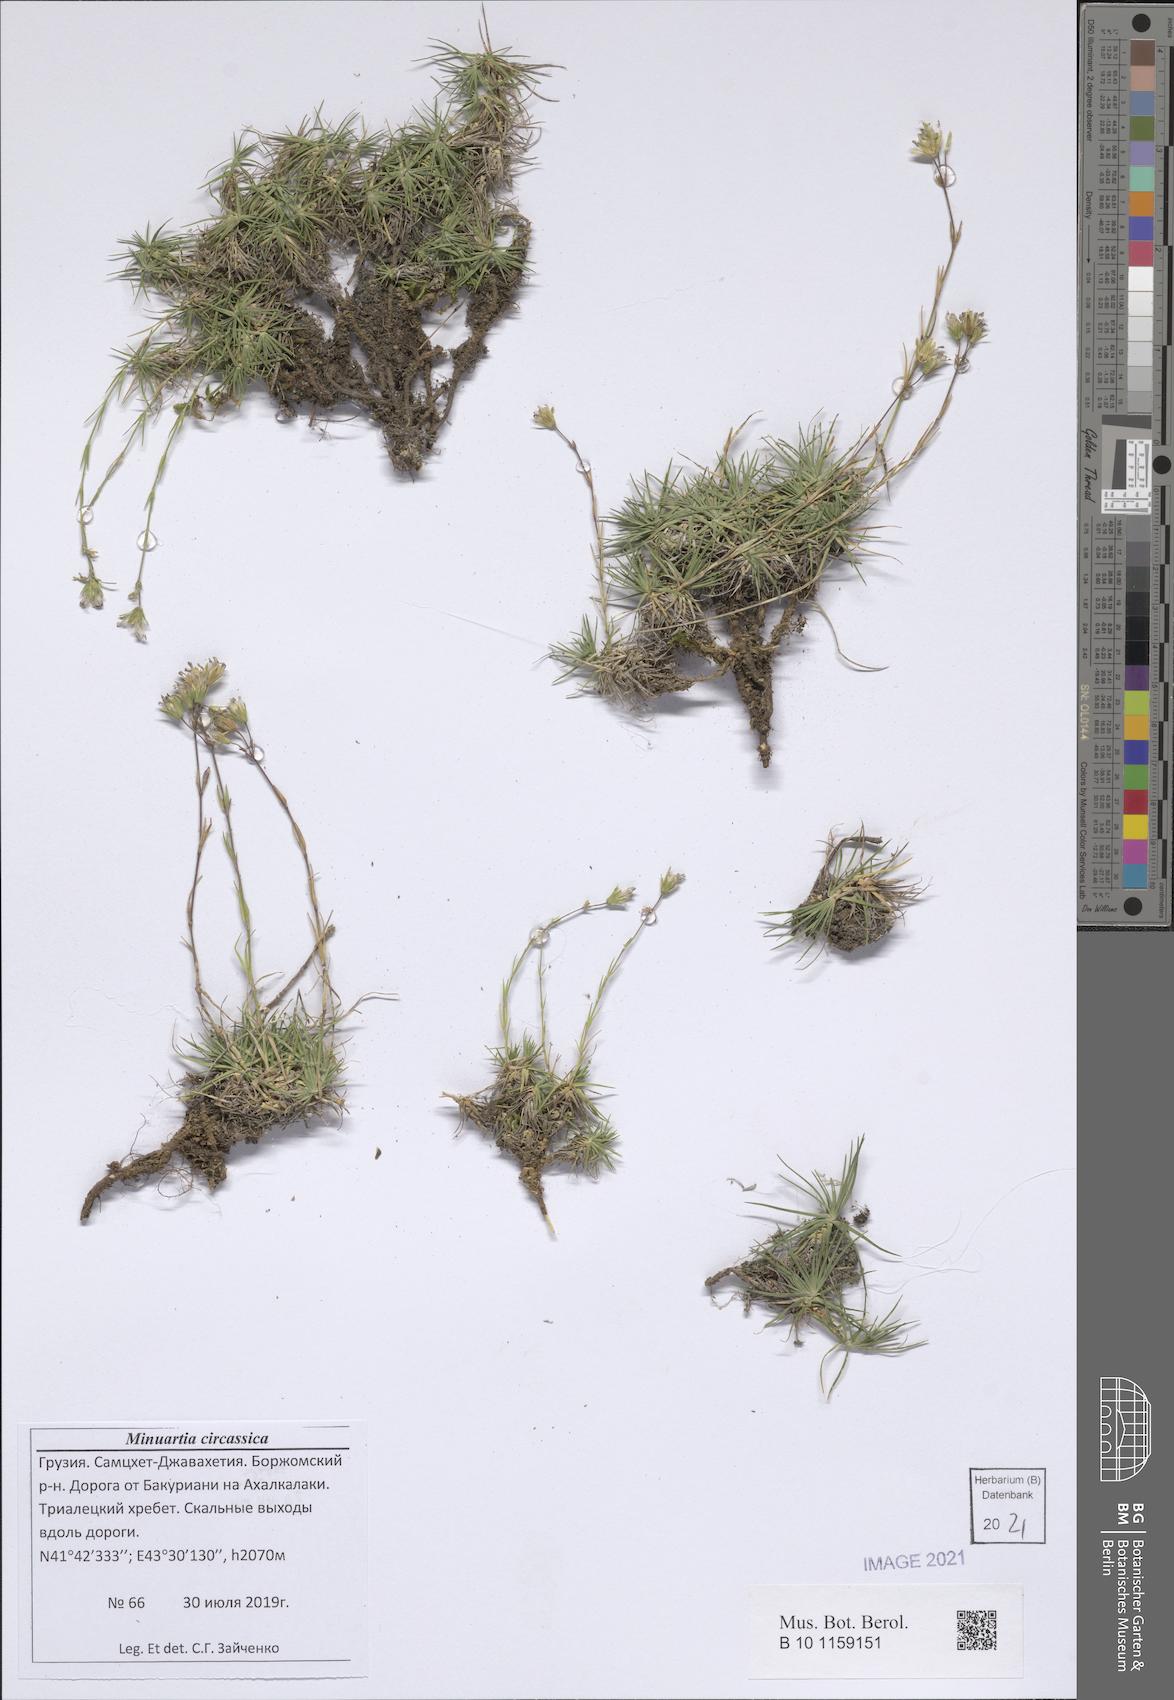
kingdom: Plantae
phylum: Tracheophyta
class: Magnoliopsida
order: Caryophyllales
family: Caryophyllaceae
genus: Cherleria
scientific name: Cherleria circassica
